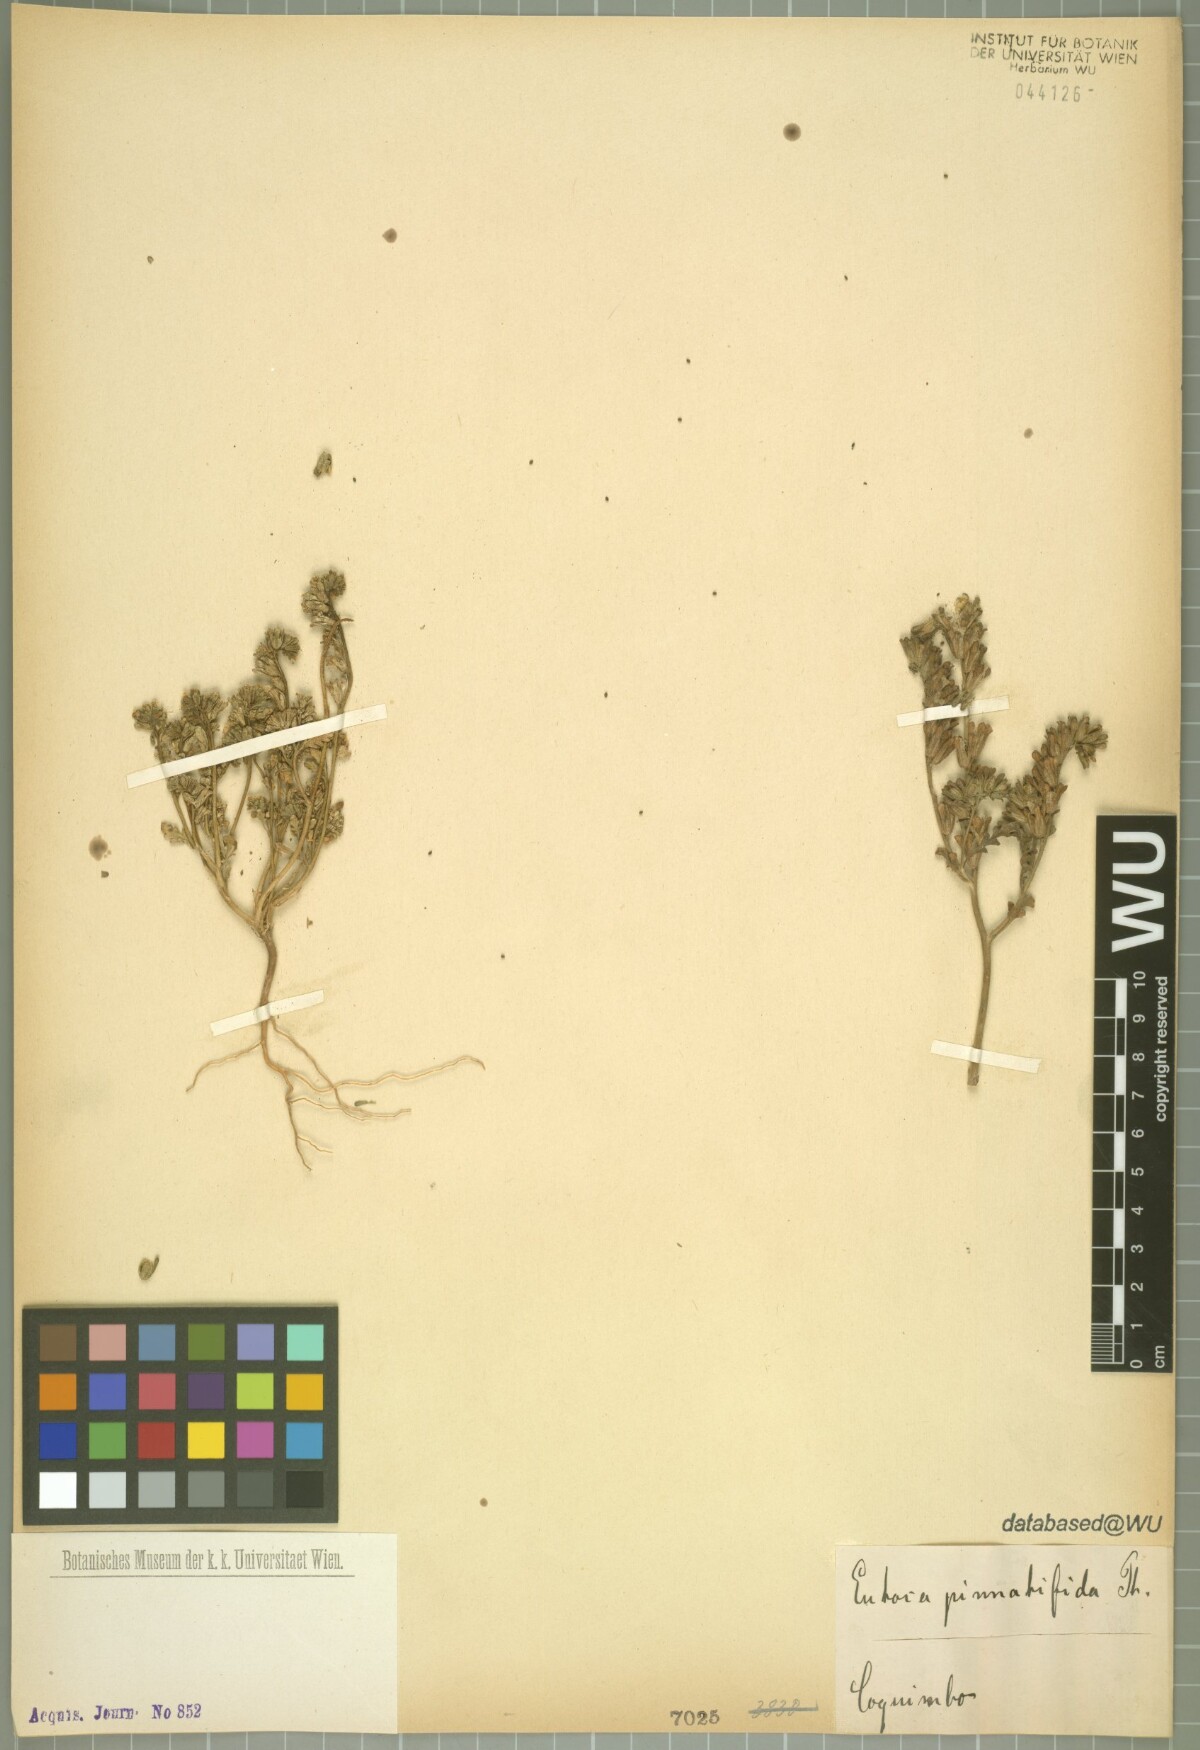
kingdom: Plantae
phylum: Tracheophyta
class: Magnoliopsida
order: Boraginales
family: Hydrophyllaceae
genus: Phacelia
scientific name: Phacelia cumingii
